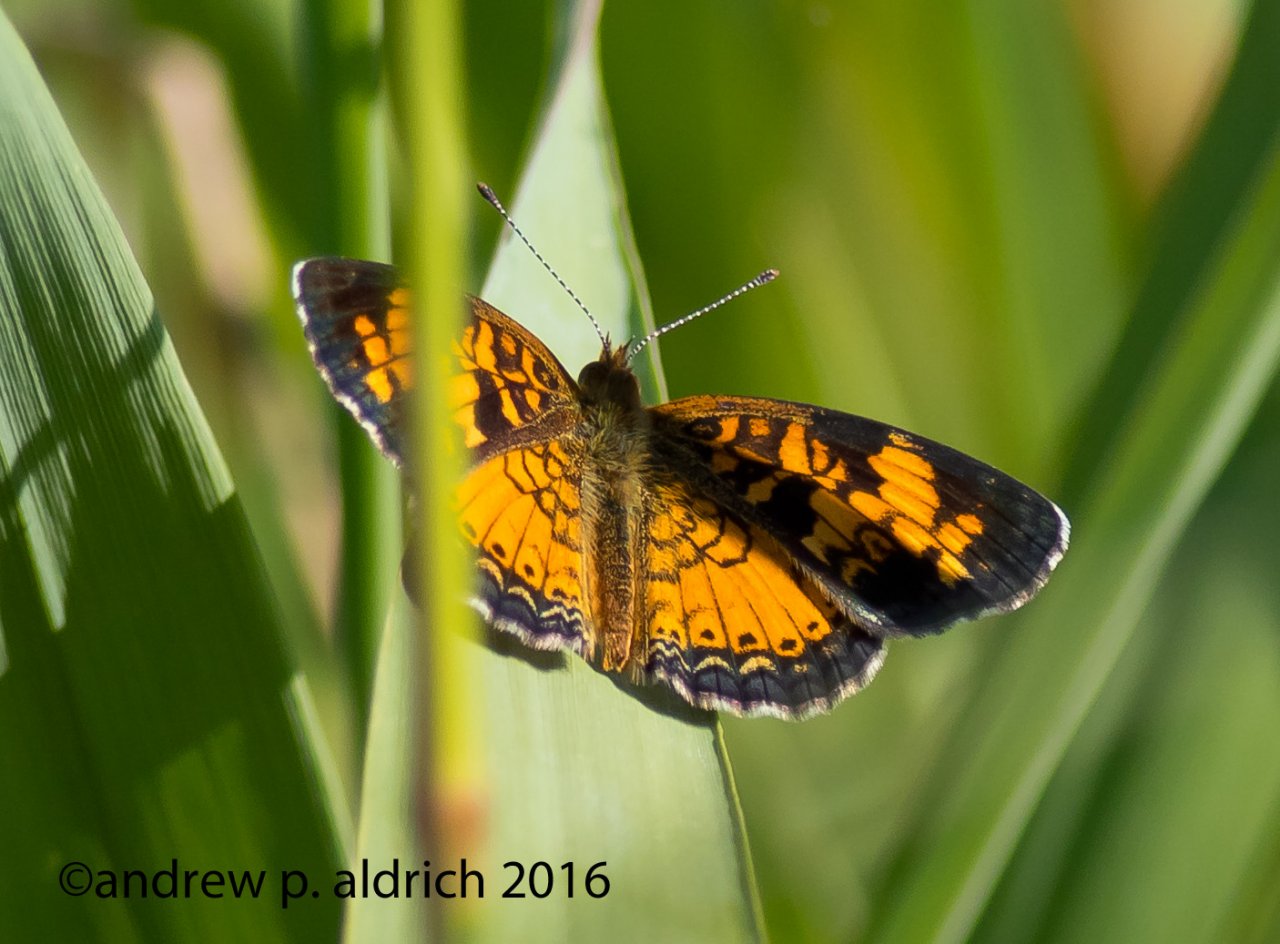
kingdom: Animalia
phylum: Arthropoda
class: Insecta
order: Lepidoptera
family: Nymphalidae
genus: Phyciodes
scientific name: Phyciodes
